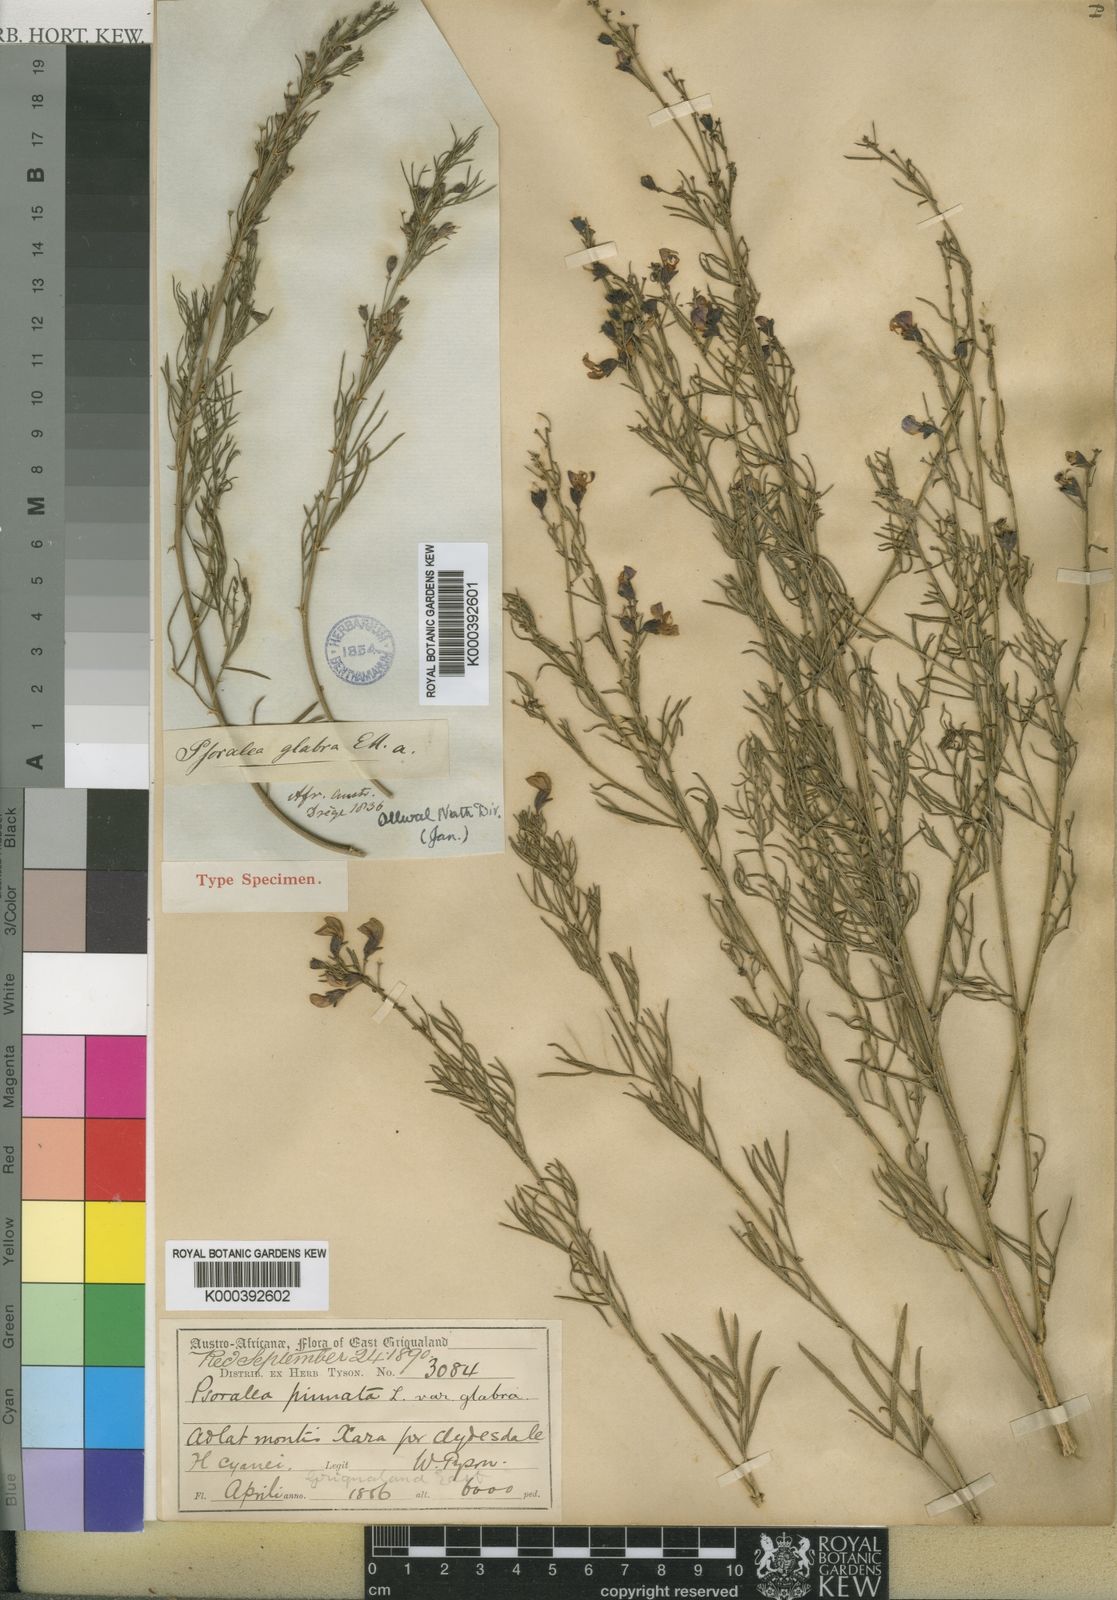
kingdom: Plantae
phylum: Tracheophyta
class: Magnoliopsida
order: Fabales
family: Fabaceae
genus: Psoralea
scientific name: Psoralea glabra
